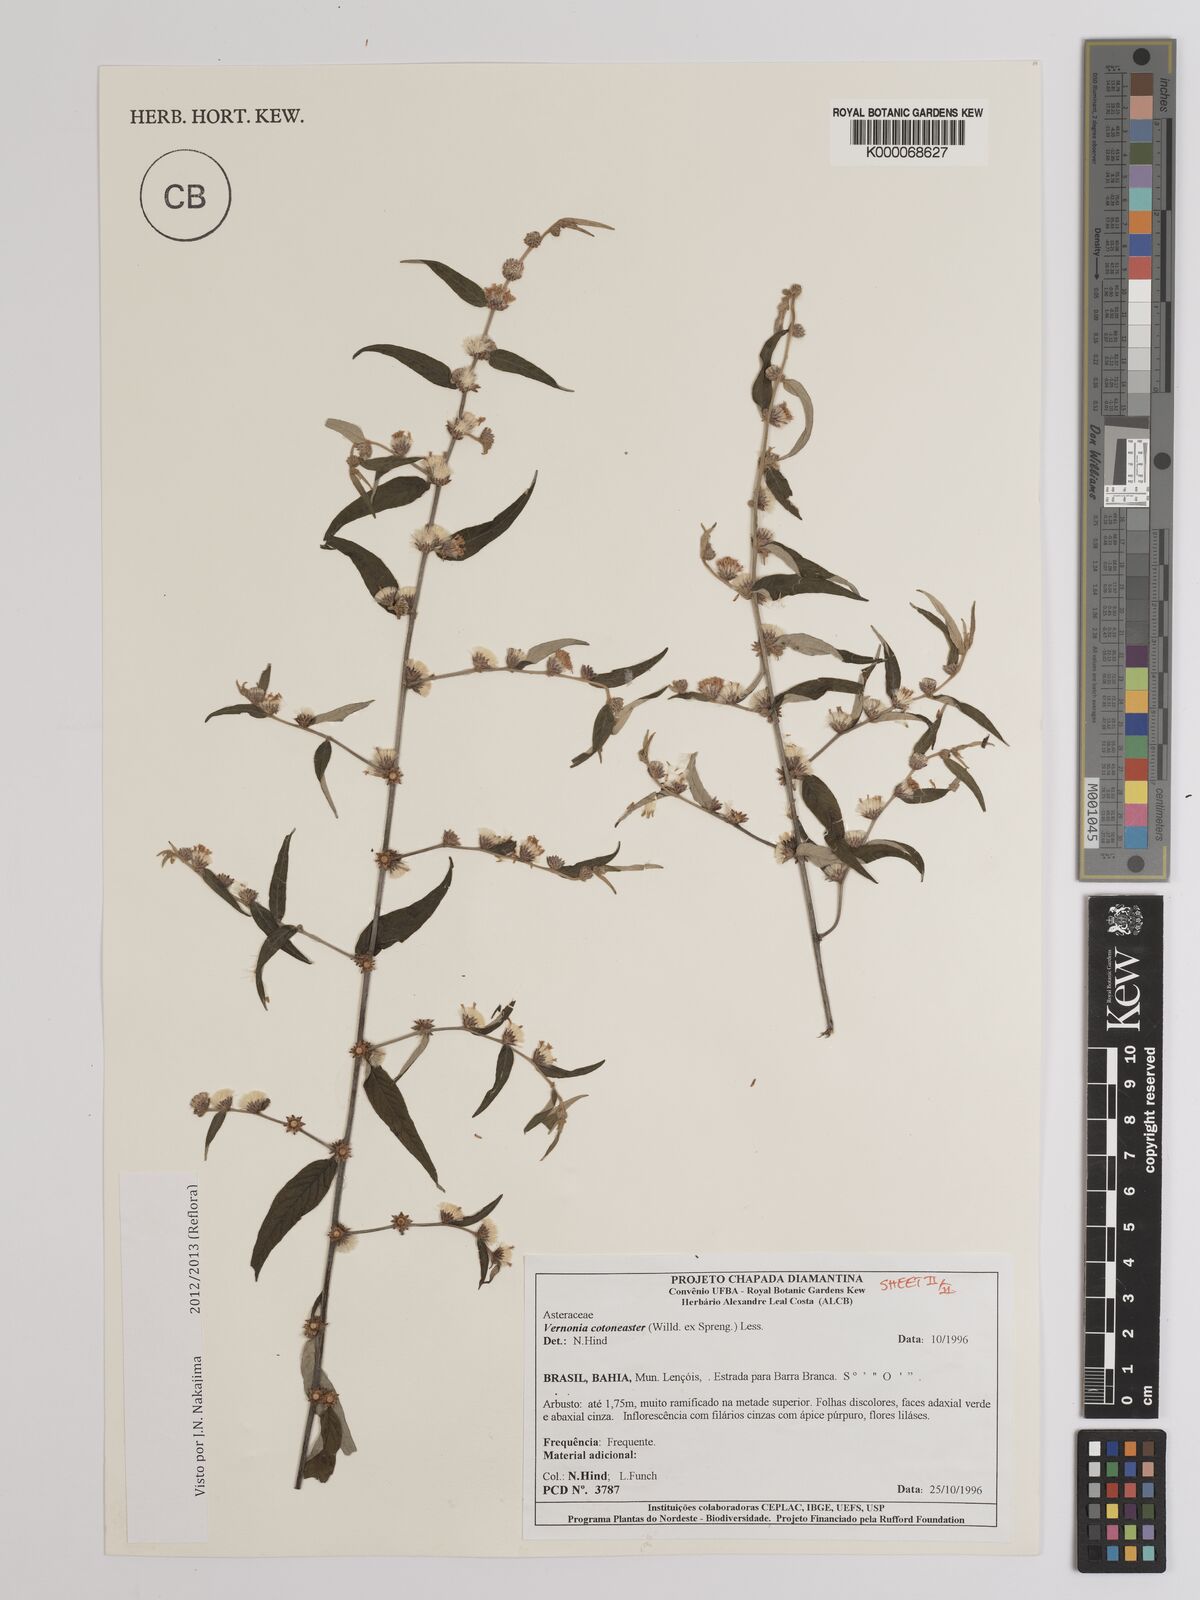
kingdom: Plantae
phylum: Tracheophyta
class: Magnoliopsida
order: Asterales
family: Asteraceae
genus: Lepidaploa
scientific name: Lepidaploa cotoneaster
